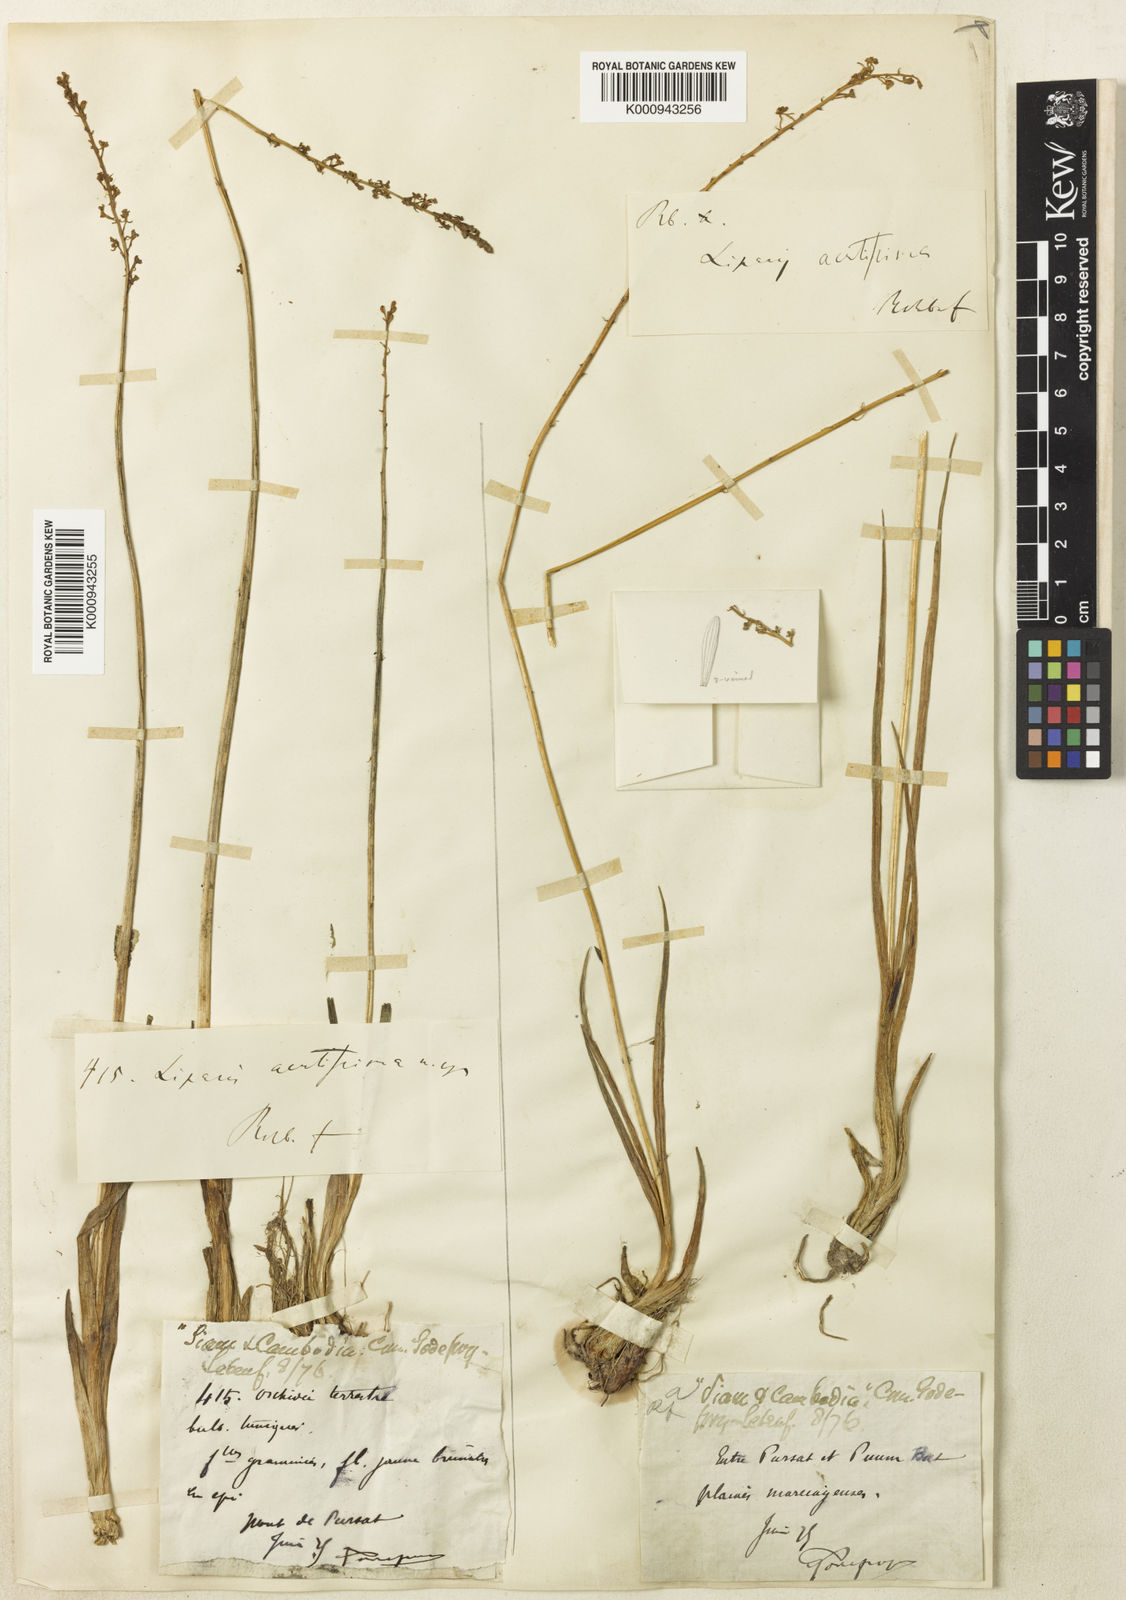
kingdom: Plantae
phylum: Tracheophyta
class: Liliopsida
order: Asparagales
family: Orchidaceae
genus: Liparis
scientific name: Liparis acutissima
